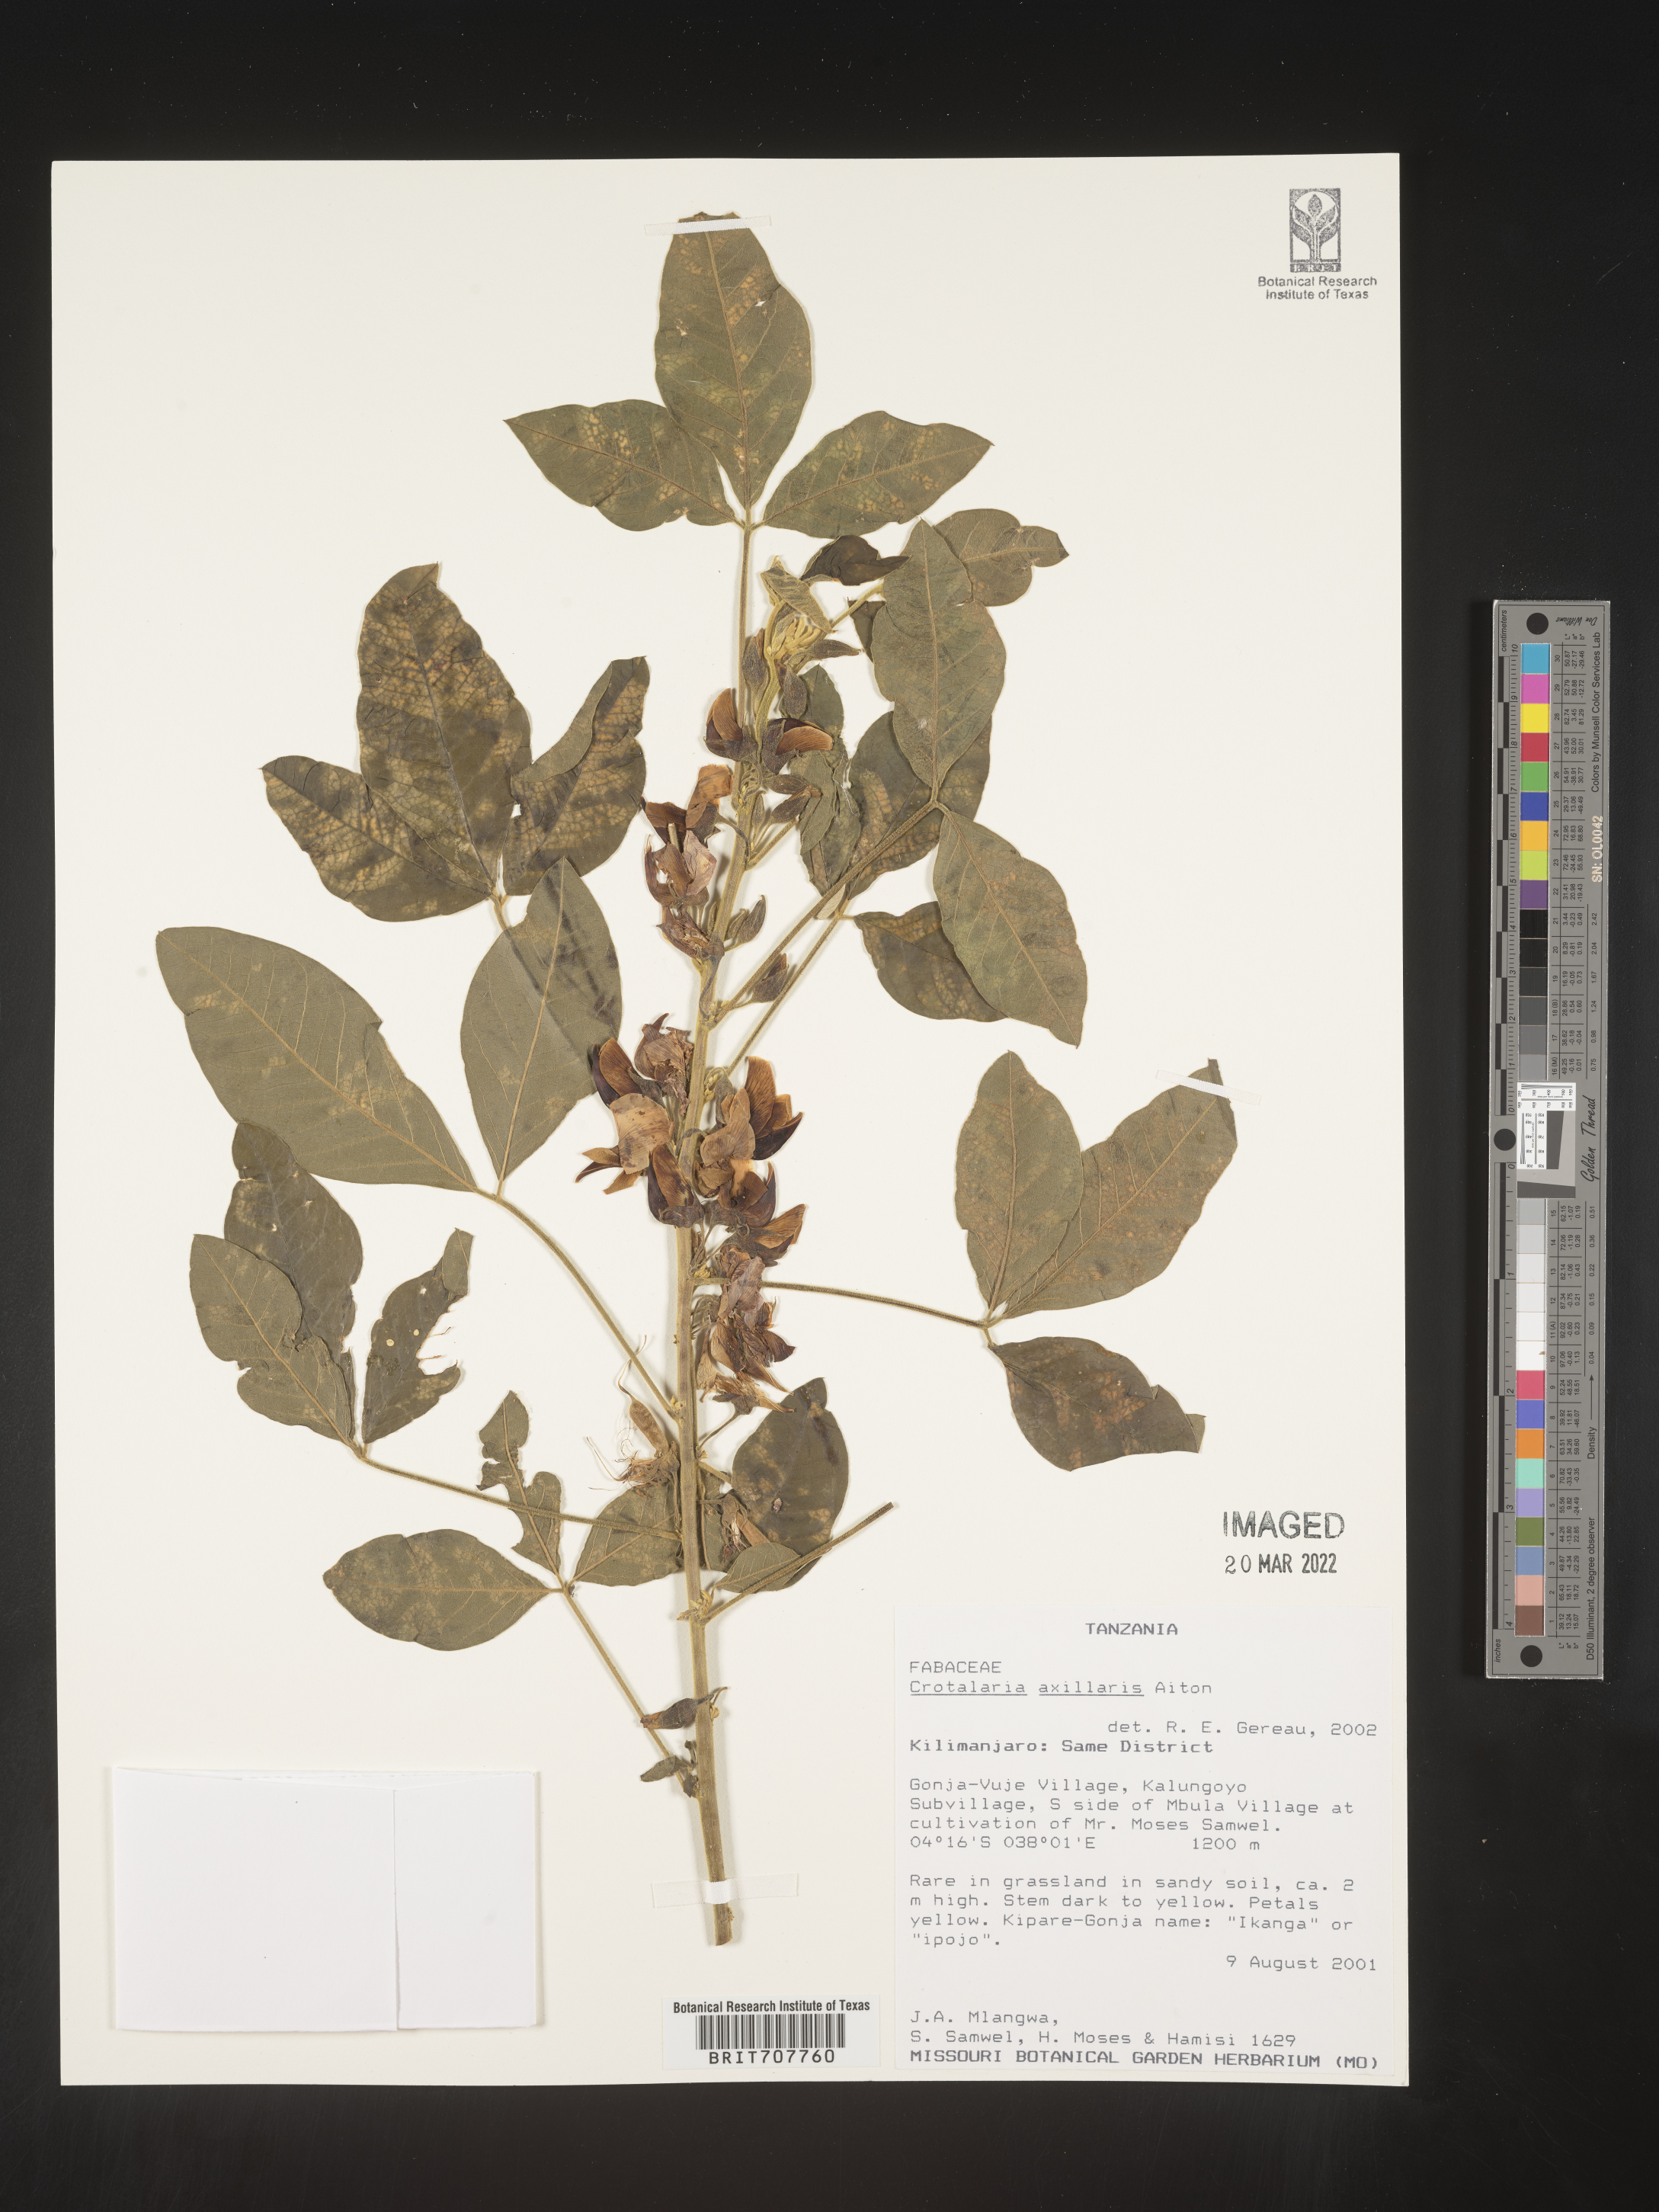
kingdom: Plantae
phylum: Tracheophyta
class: Magnoliopsida
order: Fabales
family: Fabaceae
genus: Crotalaria
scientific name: Crotalaria
